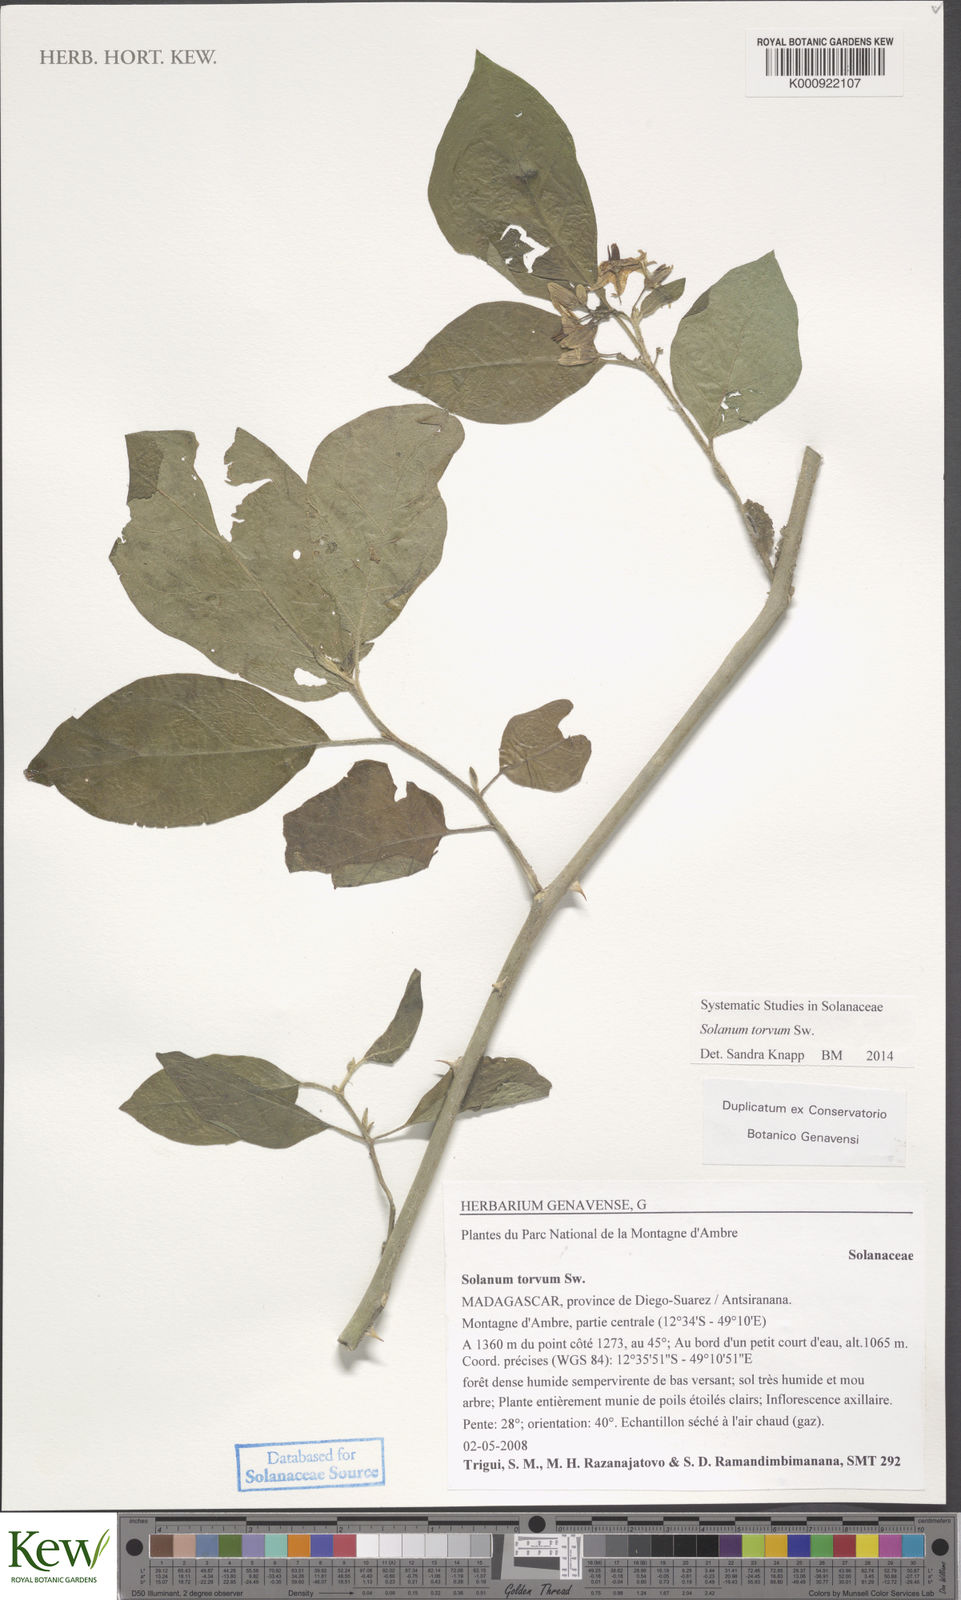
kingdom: Plantae
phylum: Tracheophyta
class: Magnoliopsida
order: Solanales
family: Solanaceae
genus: Solanum
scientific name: Solanum torvum
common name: Turkey berry
